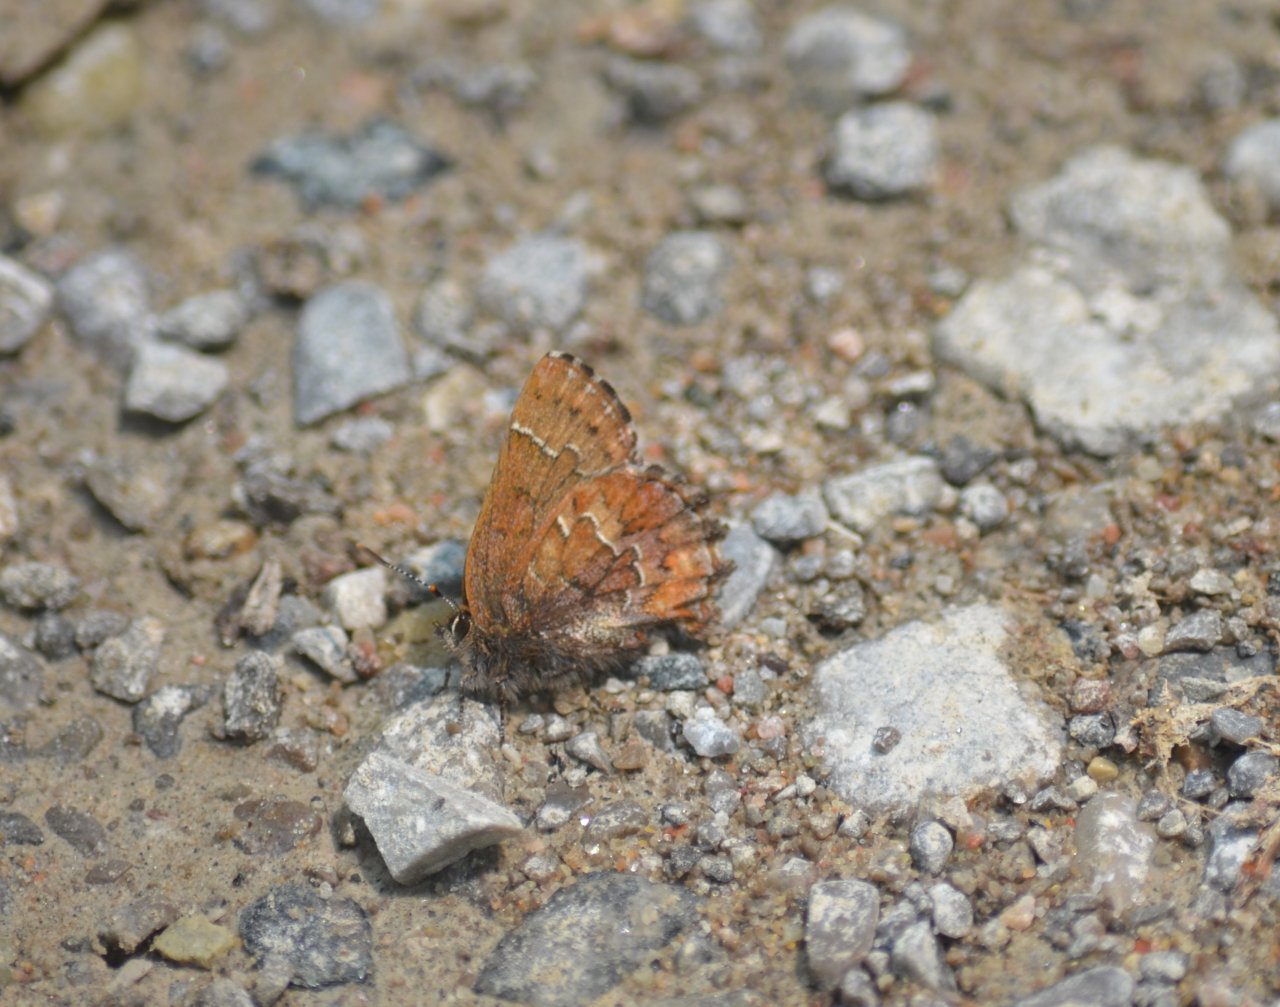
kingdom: Animalia
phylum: Arthropoda
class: Insecta
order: Lepidoptera
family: Lycaenidae
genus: Incisalia
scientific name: Incisalia niphon
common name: Eastern Pine Elfin
